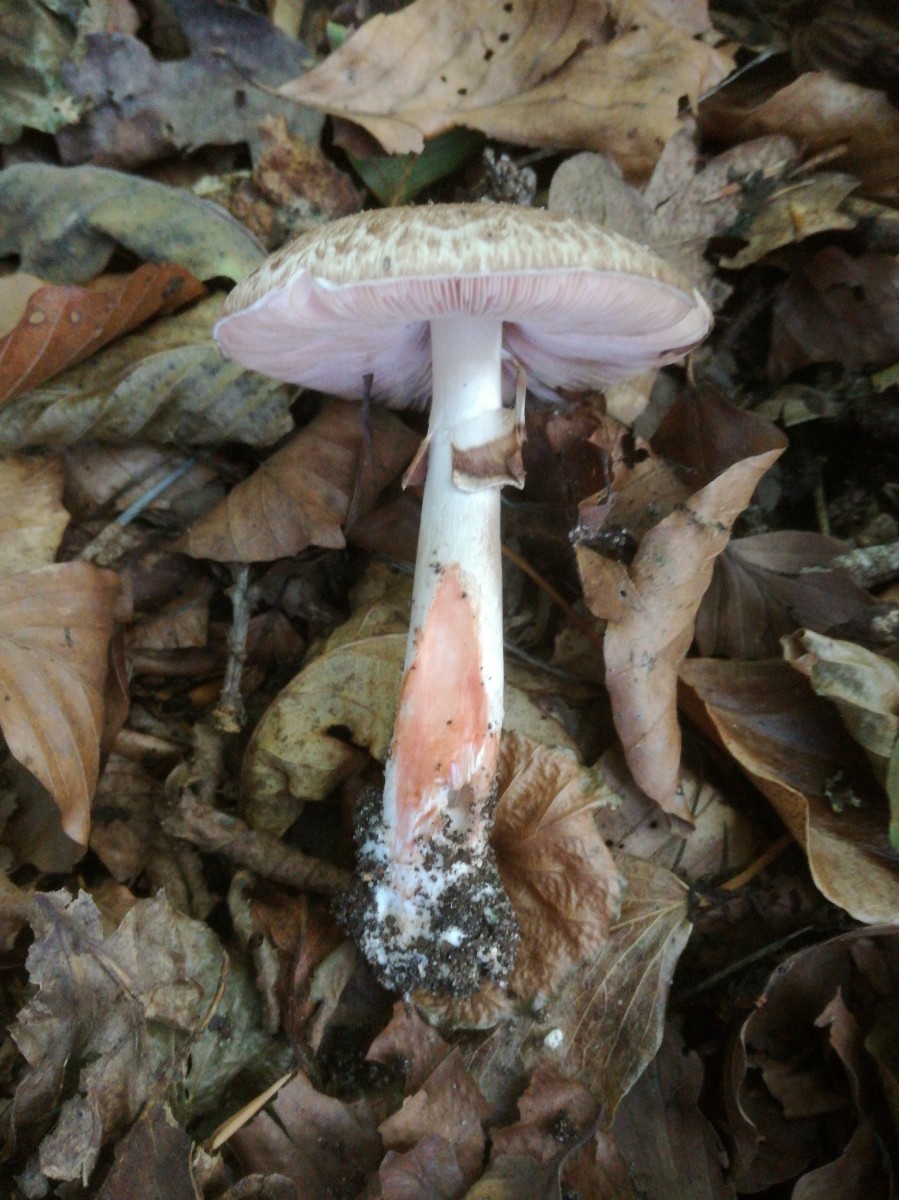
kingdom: Fungi
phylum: Basidiomycota
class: Agaricomycetes
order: Agaricales
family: Agaricaceae
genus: Agaricus
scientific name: Agaricus sylvaticus
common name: lille blod-champignon
